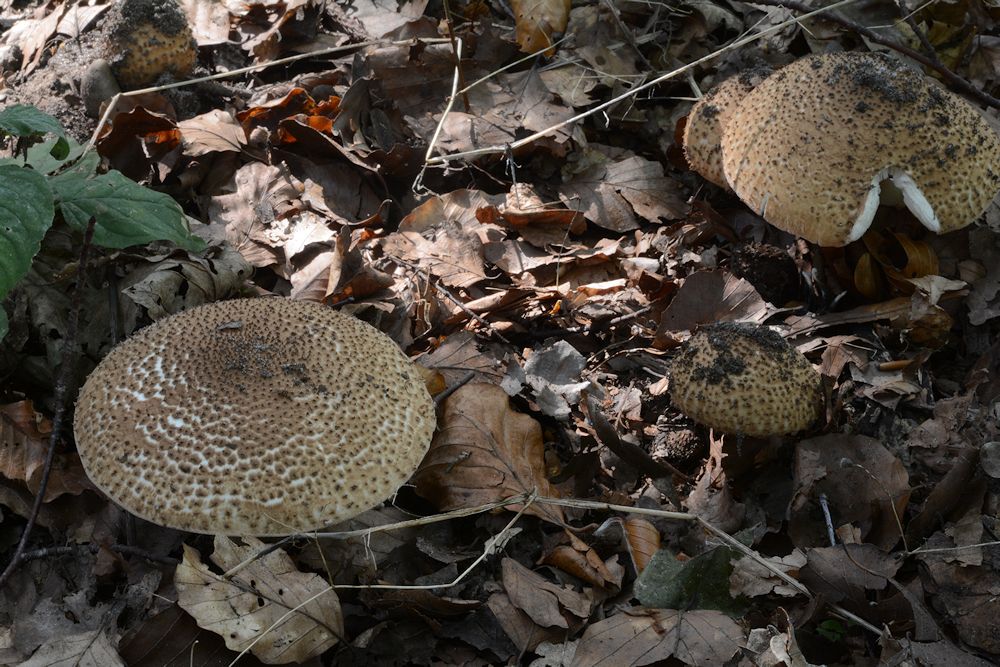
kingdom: Fungi
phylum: Basidiomycota
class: Agaricomycetes
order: Agaricales
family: Agaricaceae
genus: Echinoderma
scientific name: Echinoderma asperum
